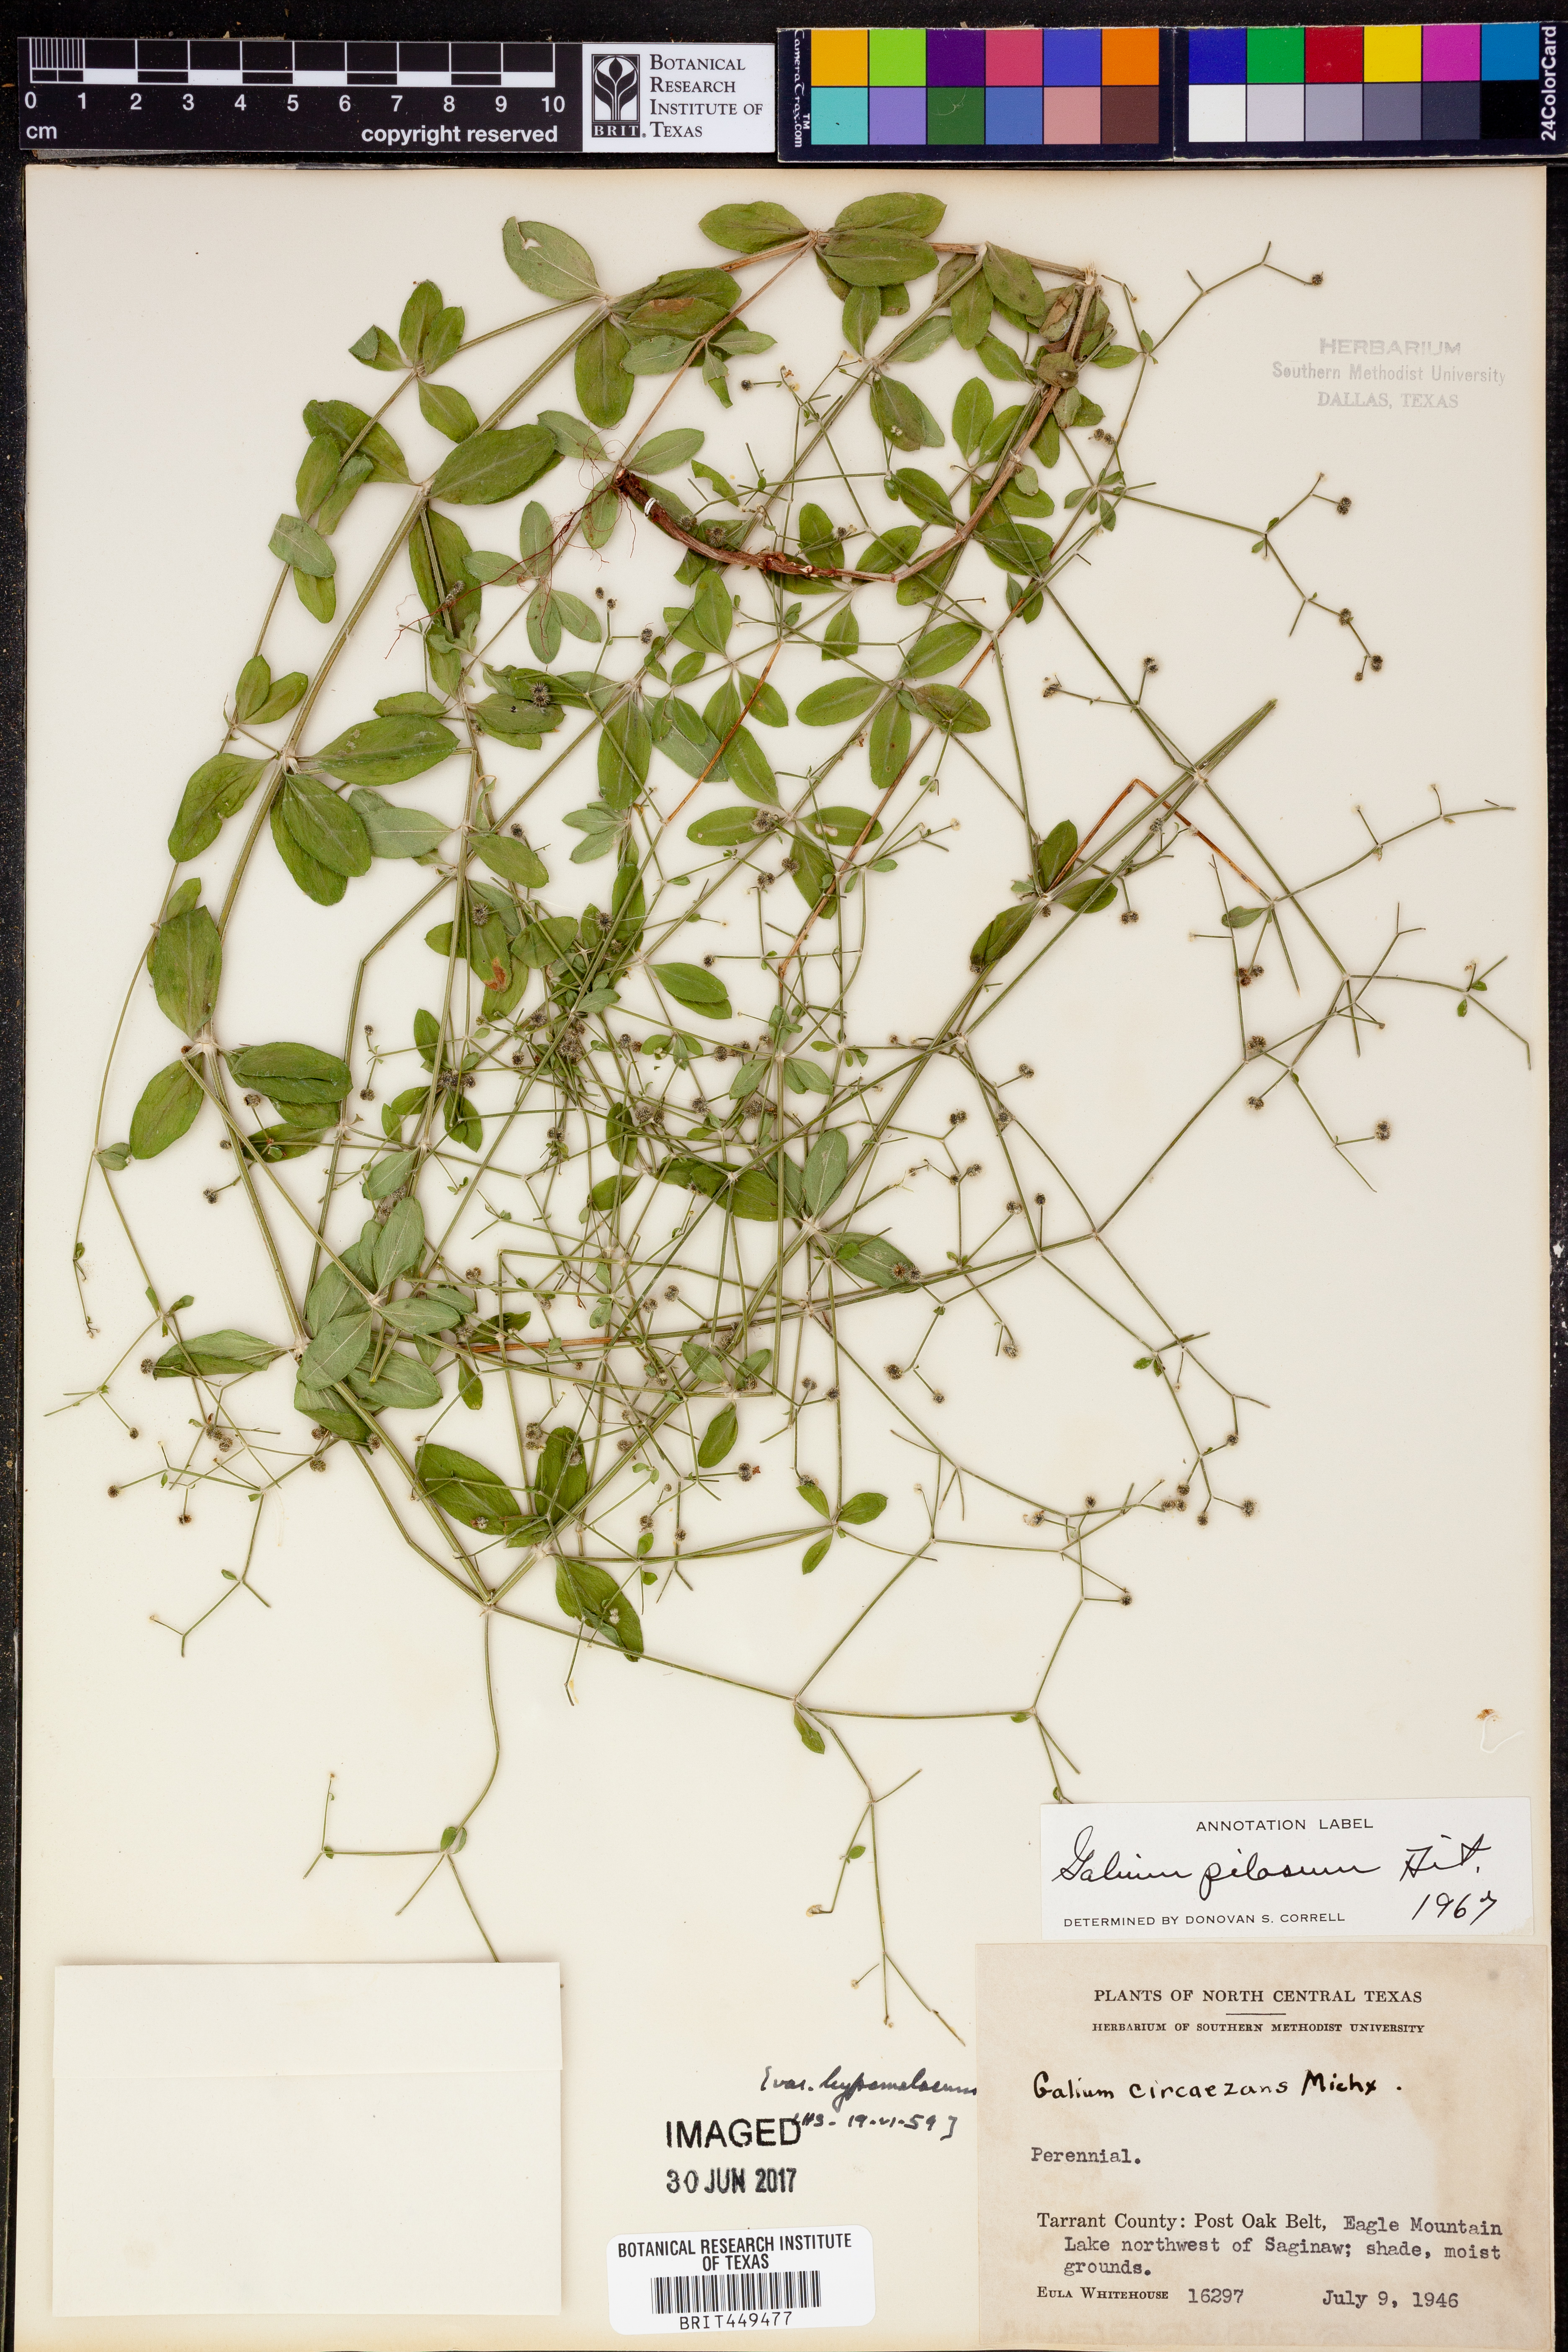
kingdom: Plantae
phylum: Tracheophyta
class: Magnoliopsida
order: Gentianales
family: Rubiaceae
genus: Galium
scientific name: Galium pilosum
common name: Hairy bedstraw
